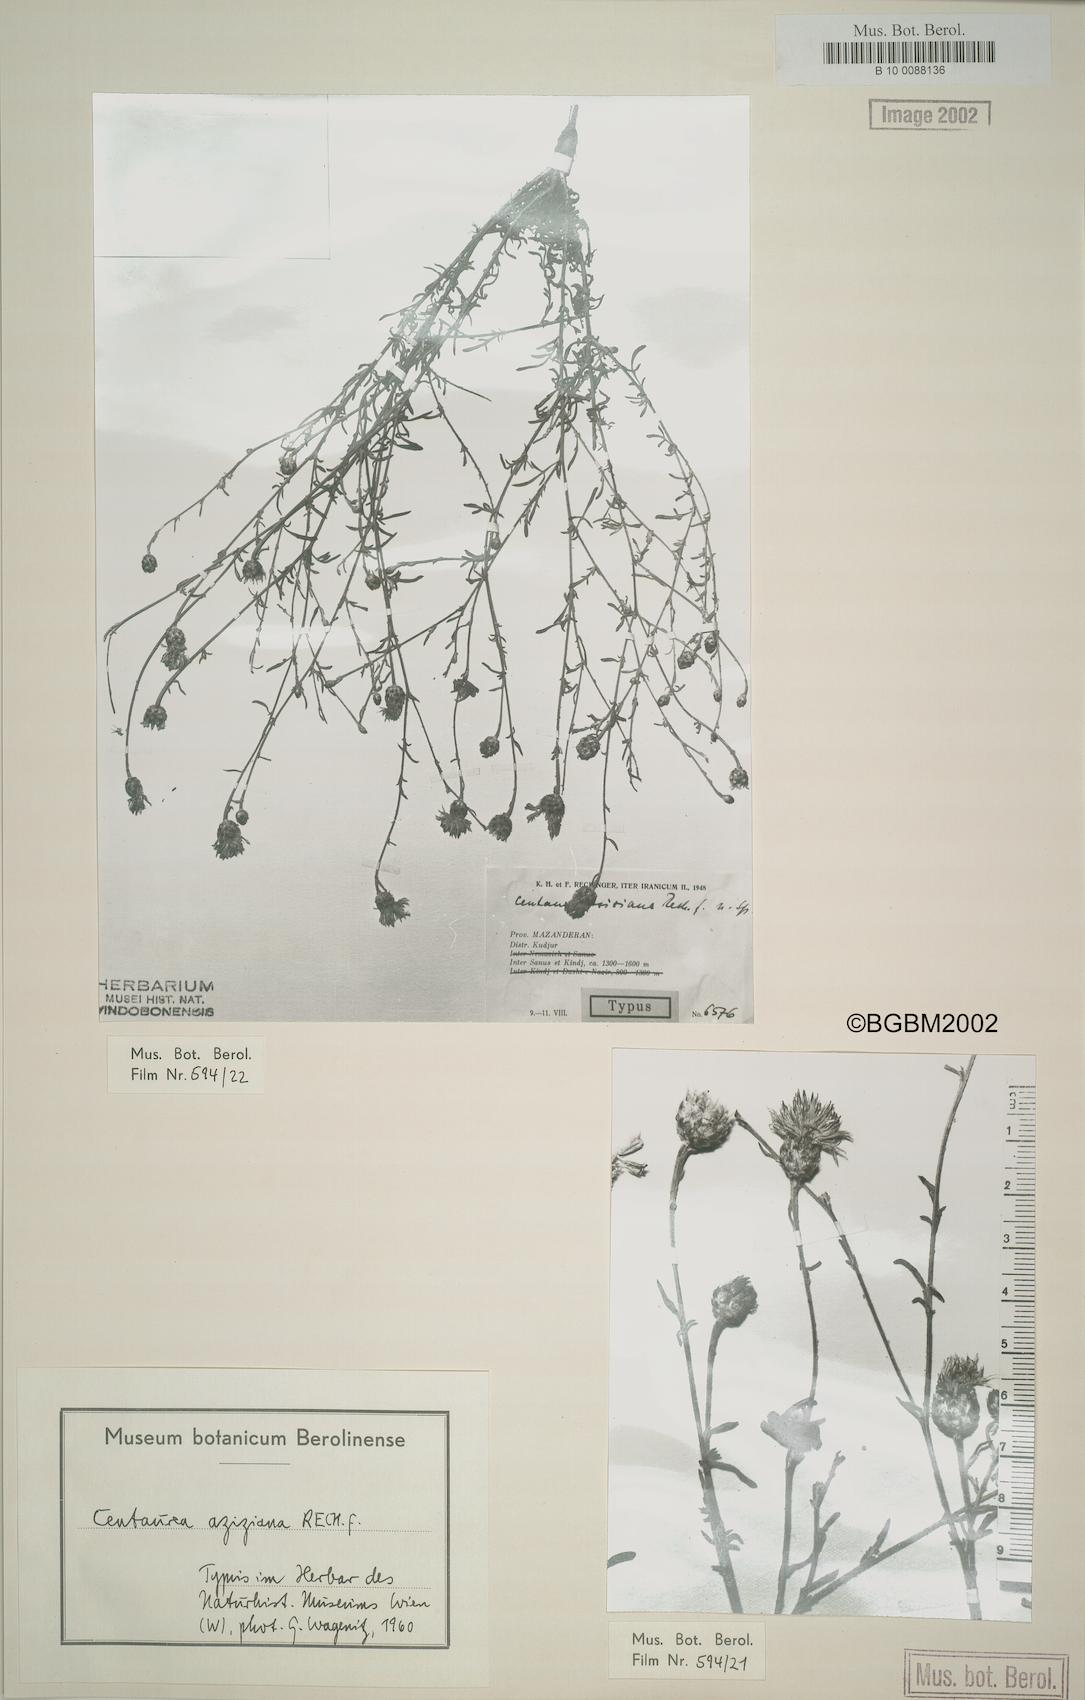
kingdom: Plantae
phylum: Tracheophyta
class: Magnoliopsida
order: Asterales
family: Asteraceae
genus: Centaurea
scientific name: Centaurea aziziana
